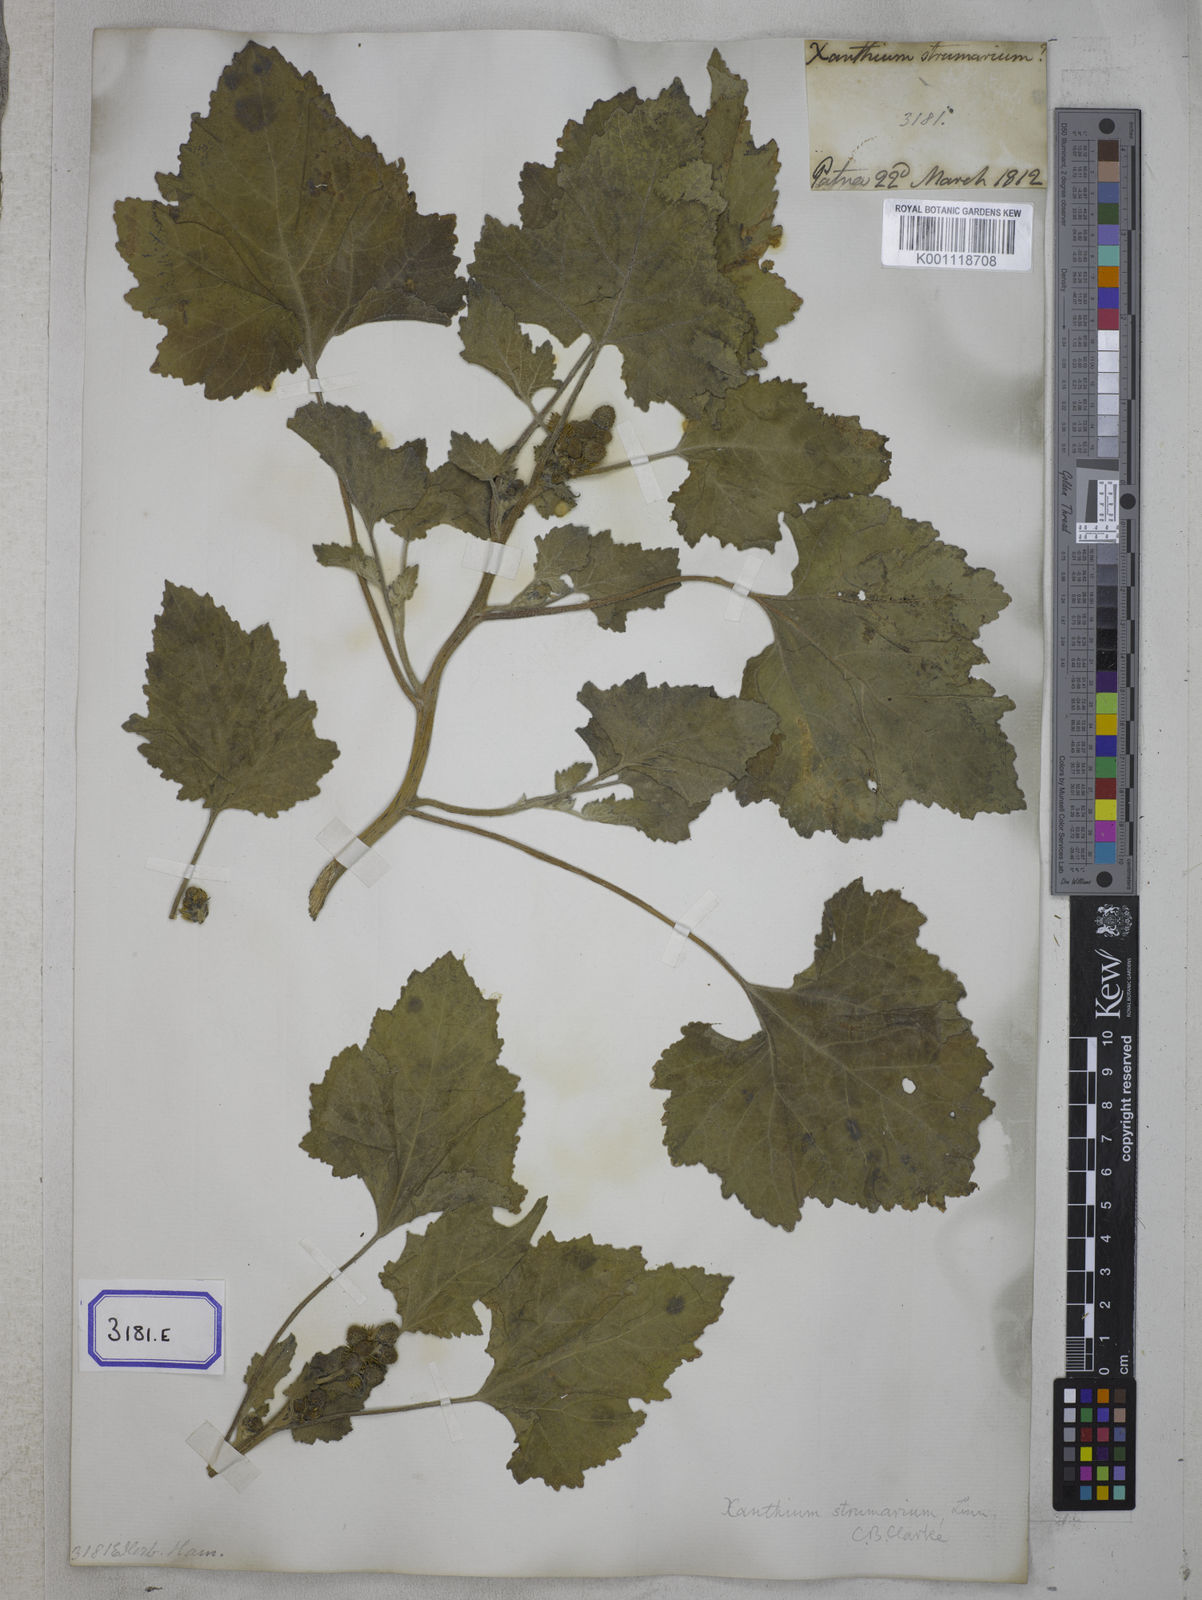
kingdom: Plantae
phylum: Tracheophyta
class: Magnoliopsida
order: Asterales
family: Asteraceae
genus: Xanthium
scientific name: Xanthium strumarium
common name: Rough cocklebur
